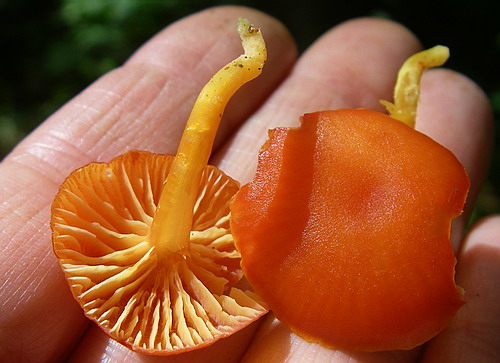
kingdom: Fungi
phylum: Basidiomycota
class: Agaricomycetes
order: Agaricales
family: Hygrophoraceae
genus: Hygrocybe
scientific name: Hygrocybe miniata
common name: mønje-vokshat
